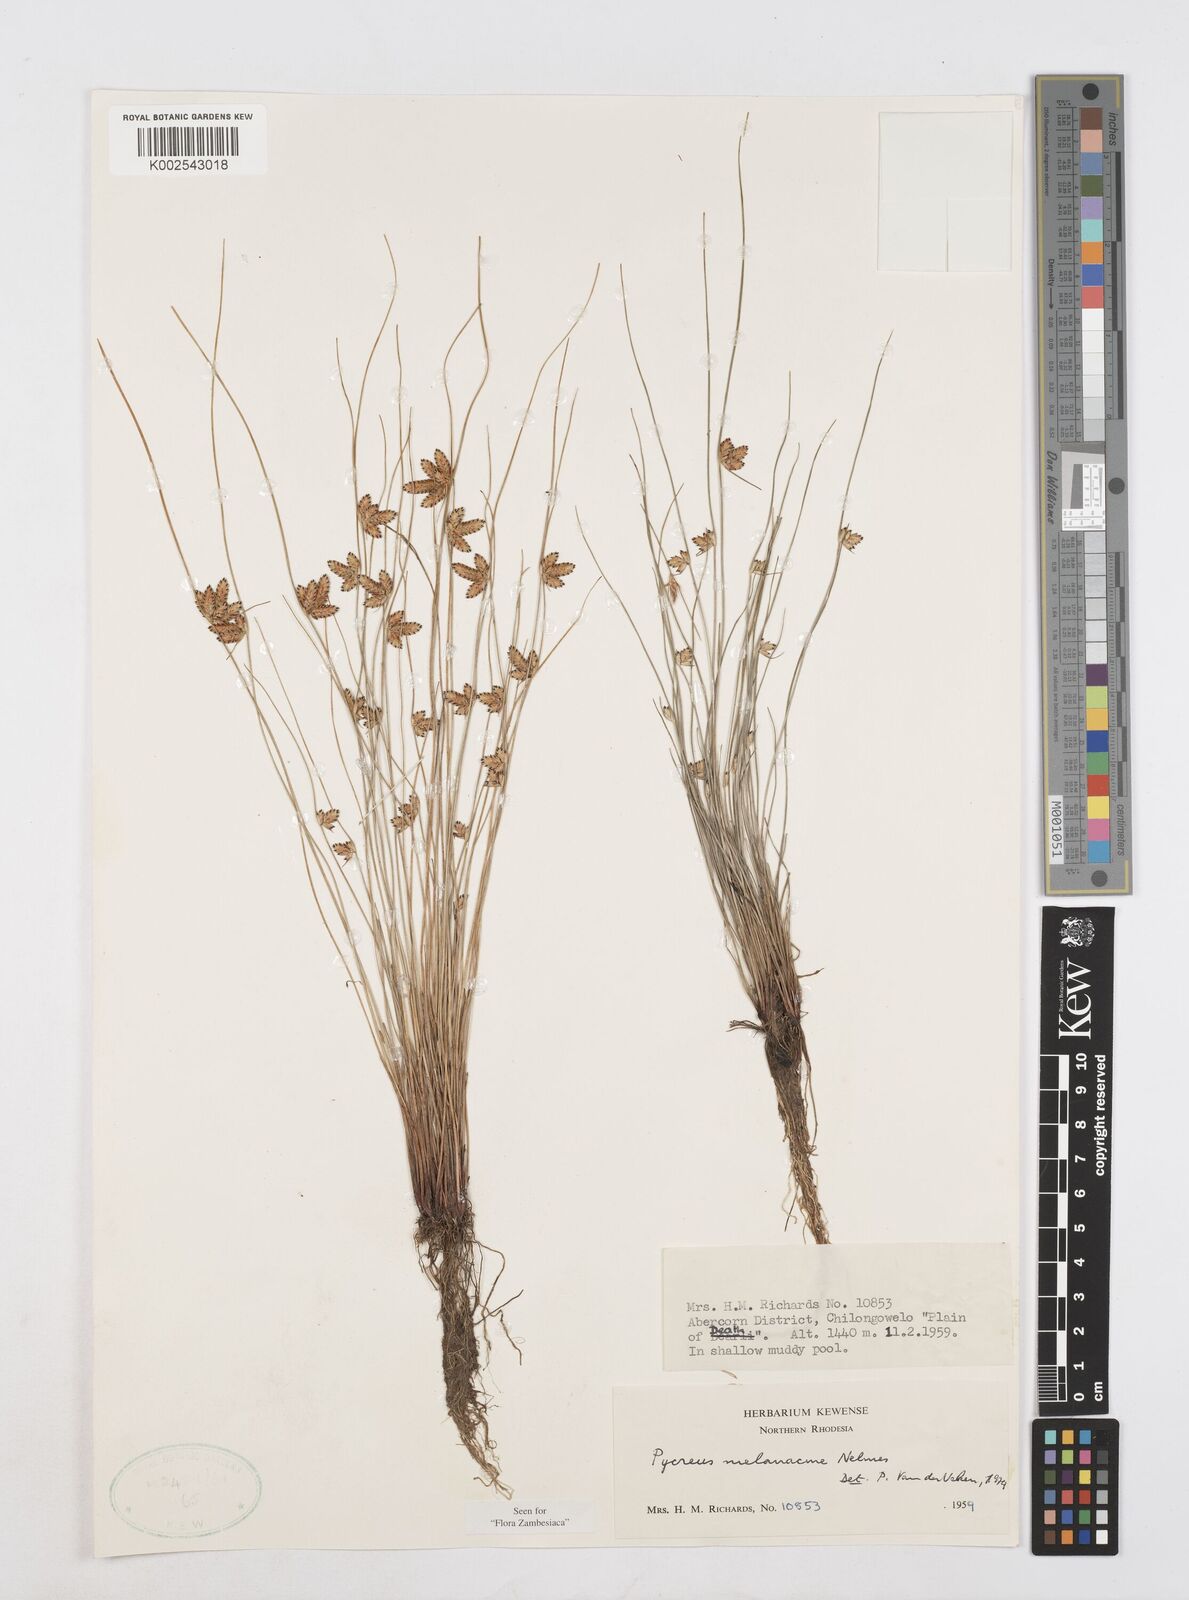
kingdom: Plantae
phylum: Tracheophyta
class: Liliopsida
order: Poales
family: Cyperaceae
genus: Cyperus
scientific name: Cyperus melanacme
